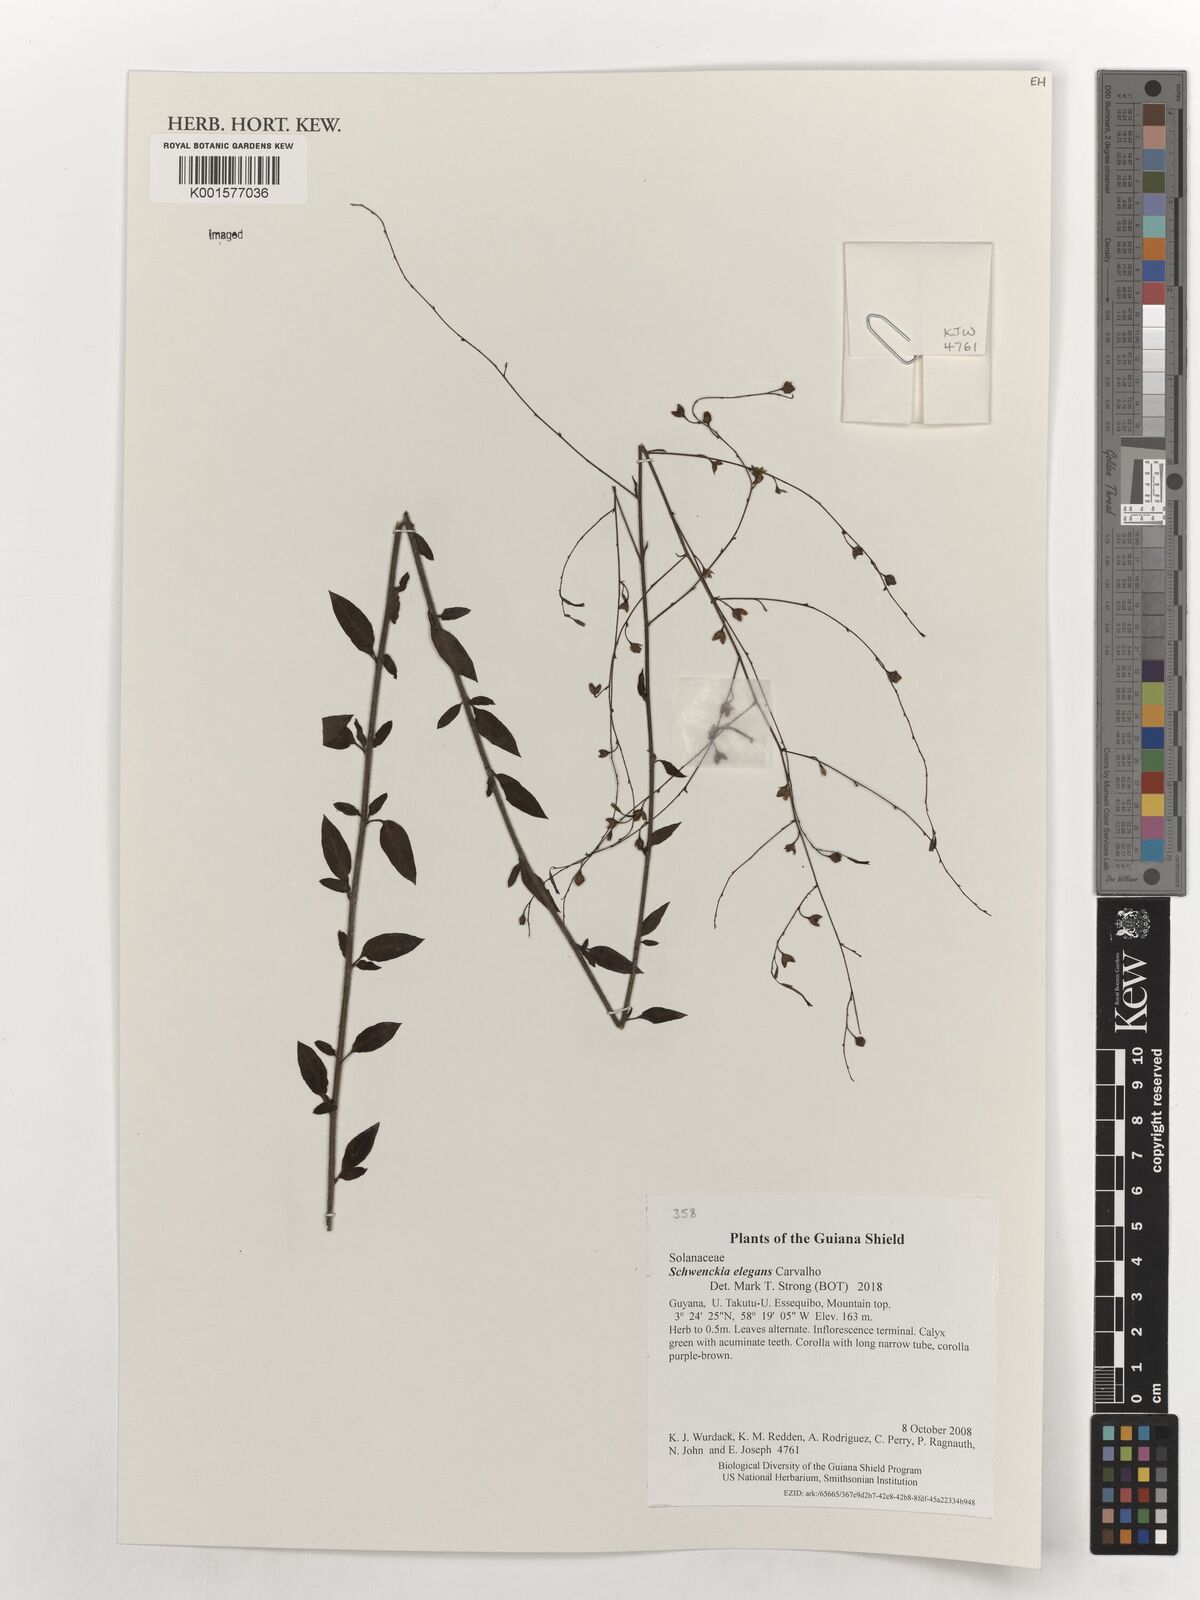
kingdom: Plantae
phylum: Tracheophyta
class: Magnoliopsida
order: Solanales
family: Solanaceae
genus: Schwenckia
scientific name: Schwenckia elegans
